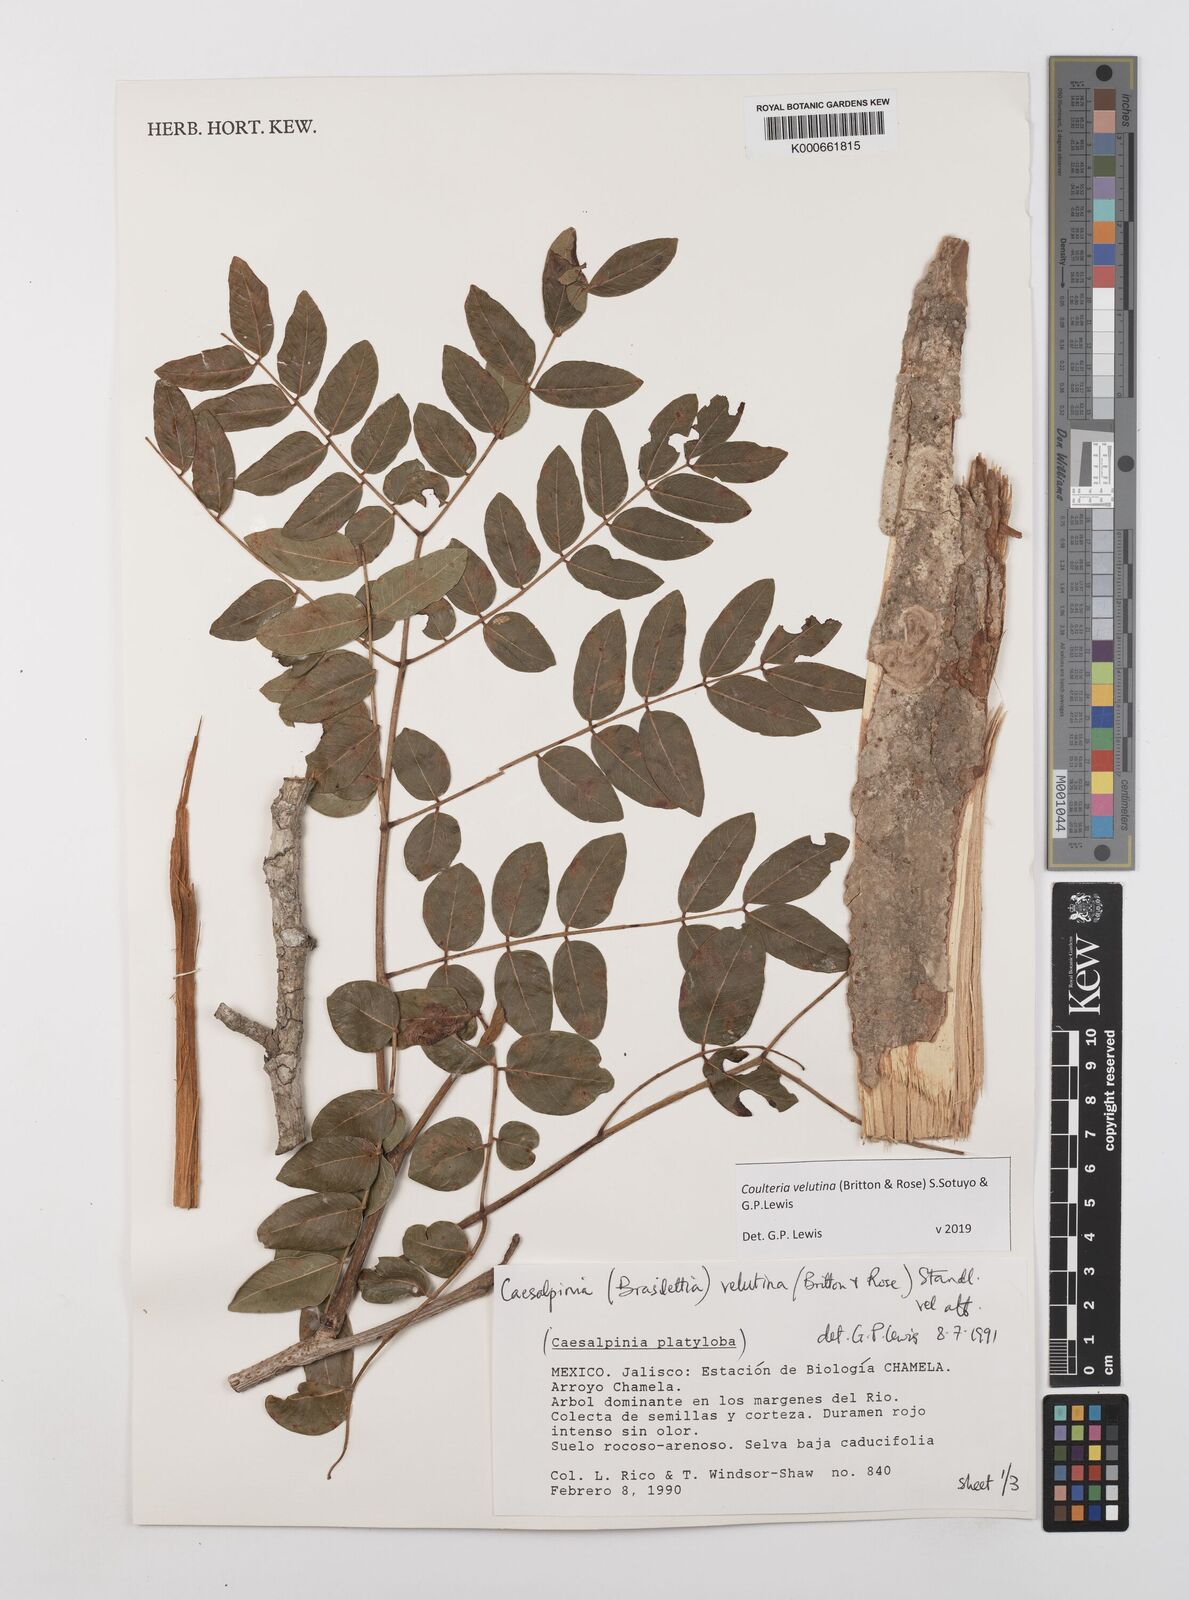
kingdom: Plantae
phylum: Tracheophyta
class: Magnoliopsida
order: Fabales
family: Fabaceae
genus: Coulteria
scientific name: Coulteria velutina
